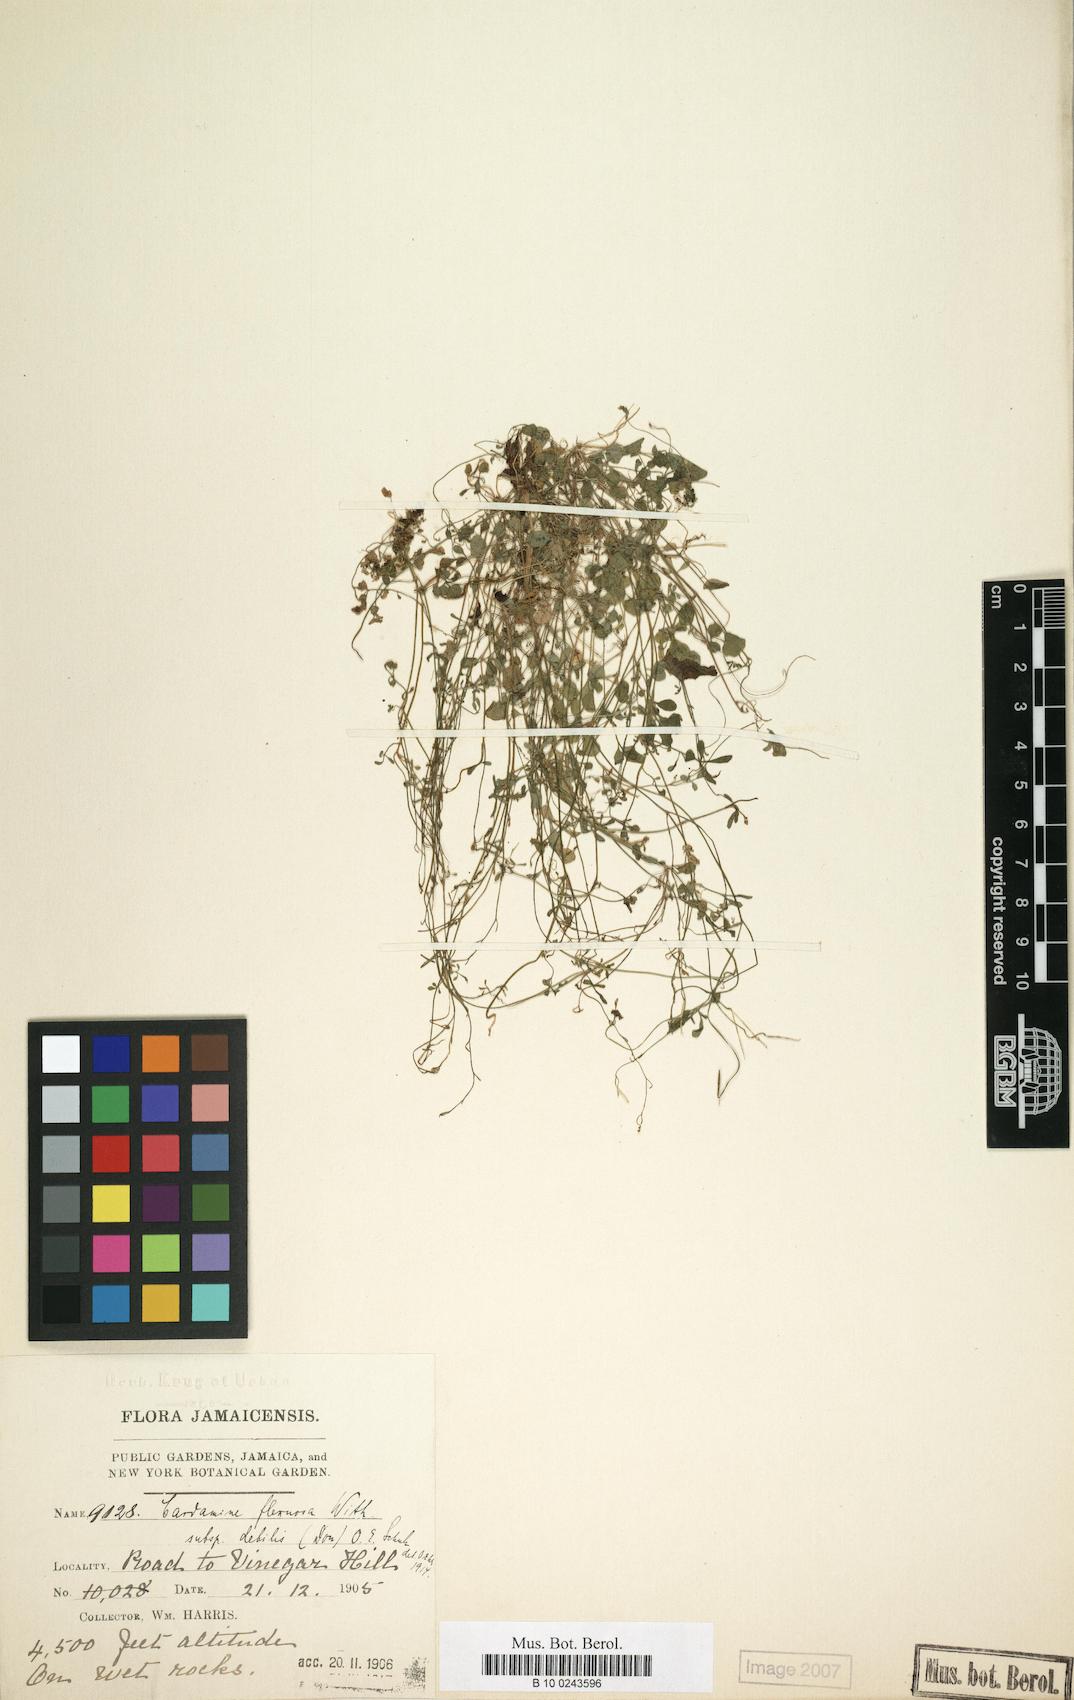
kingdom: Plantae
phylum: Tracheophyta
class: Magnoliopsida
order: Brassicales
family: Brassicaceae
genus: Cardamine
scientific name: Cardamine occulta
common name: Asian wavy bittercress
